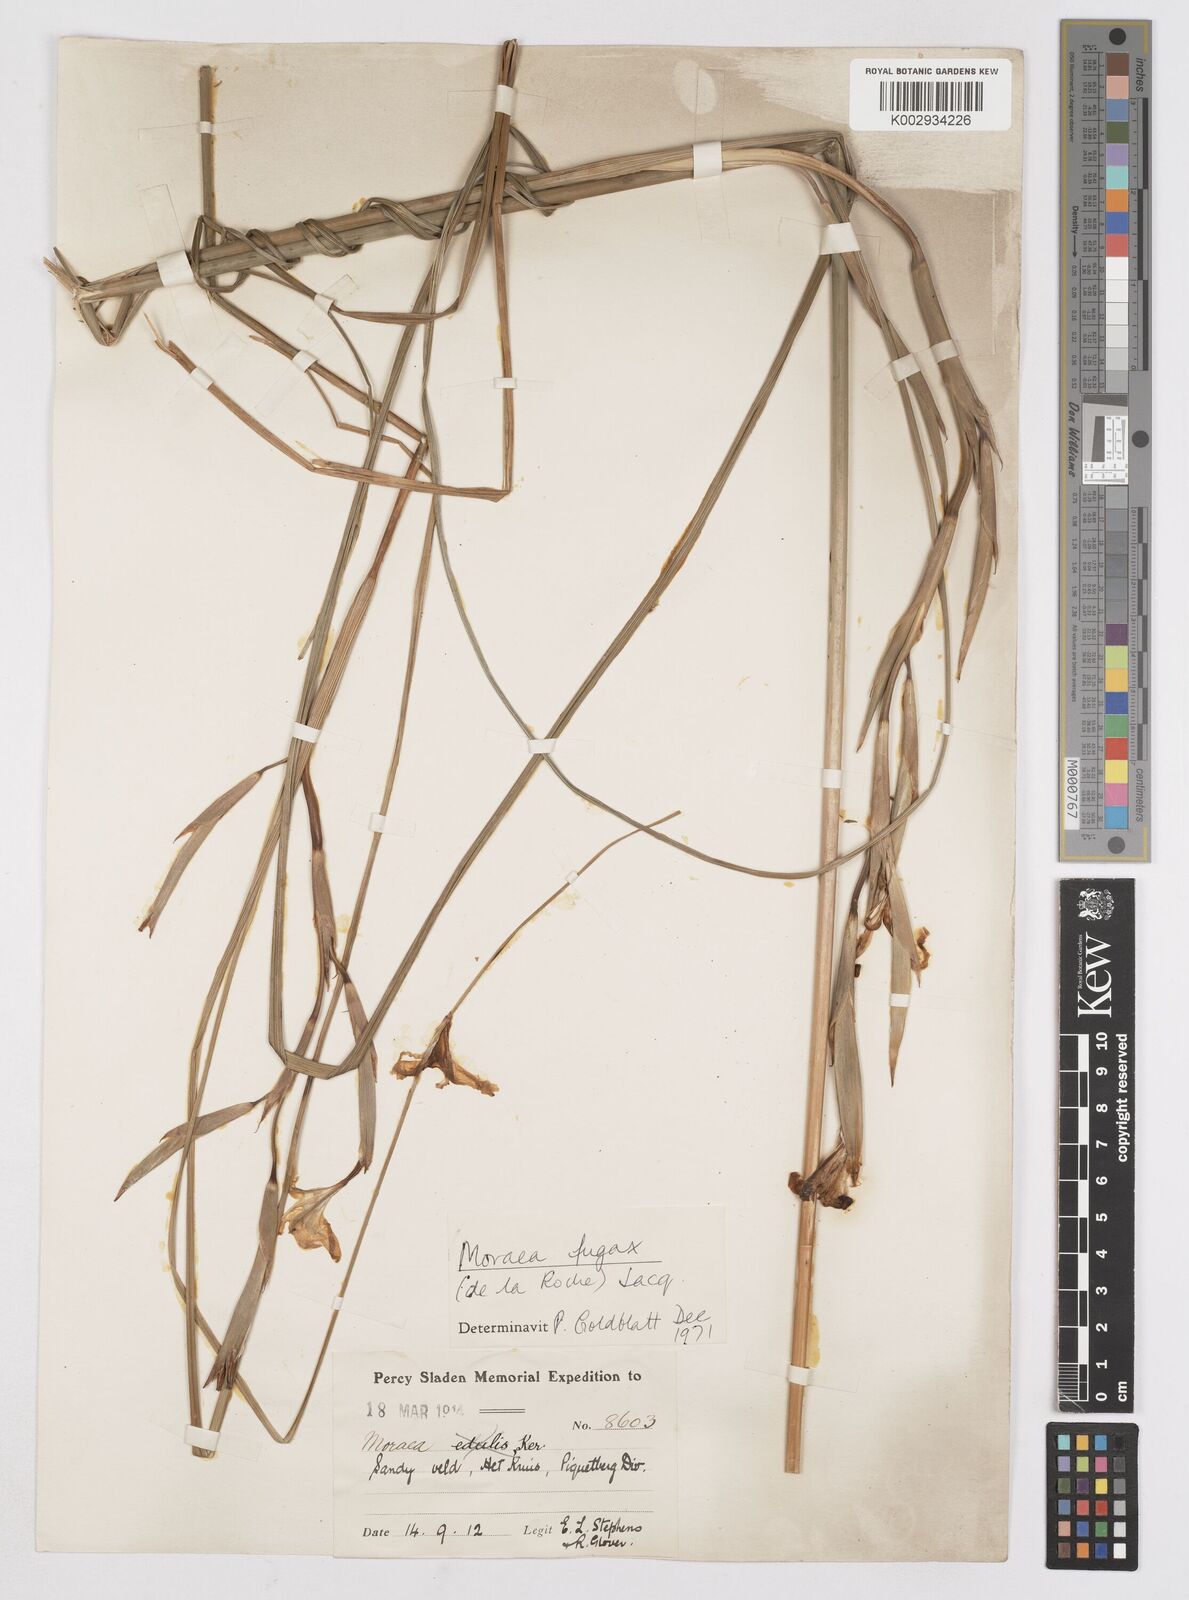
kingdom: Plantae
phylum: Tracheophyta
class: Liliopsida
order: Asparagales
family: Iridaceae
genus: Moraea
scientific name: Moraea fugax
